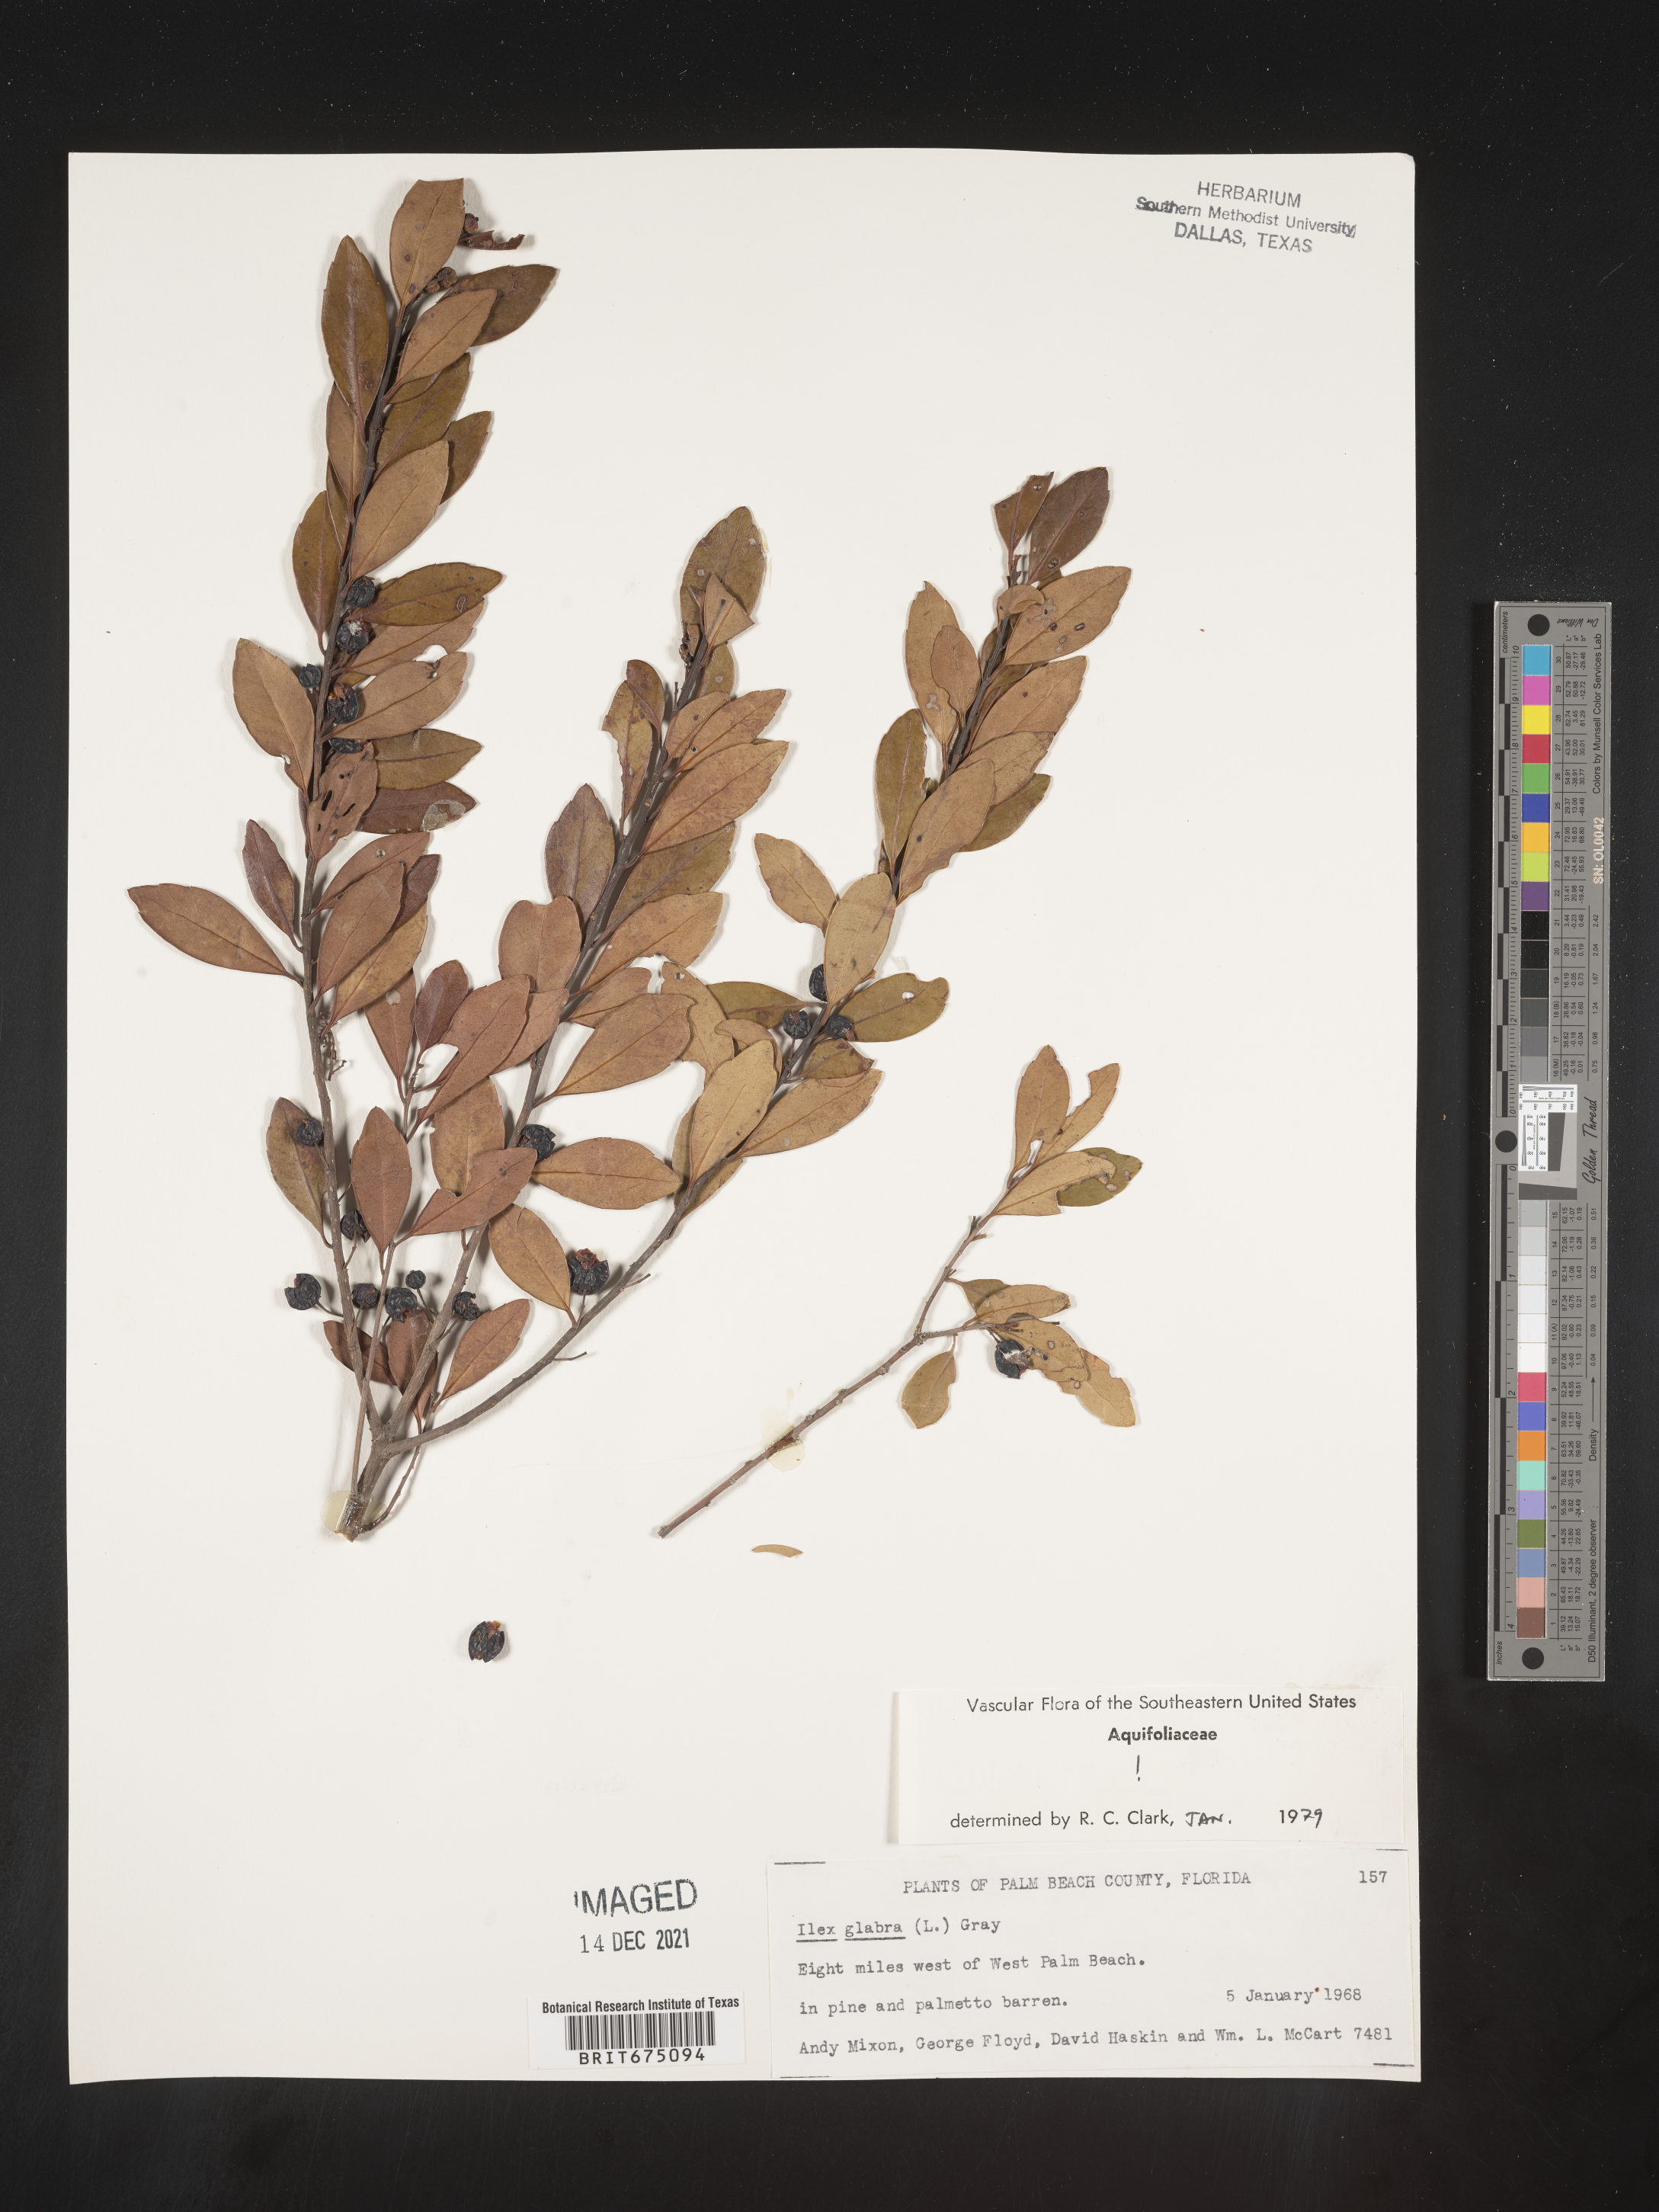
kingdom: Plantae
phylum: Tracheophyta
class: Magnoliopsida
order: Aquifoliales
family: Aquifoliaceae
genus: Ilex
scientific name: Ilex glabra
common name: Bitter gallberry
